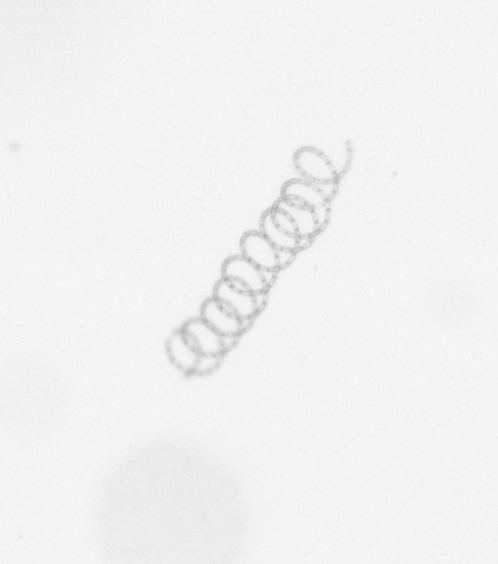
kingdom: Chromista
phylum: Ochrophyta
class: Bacillariophyceae
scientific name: Bacillariophyceae
